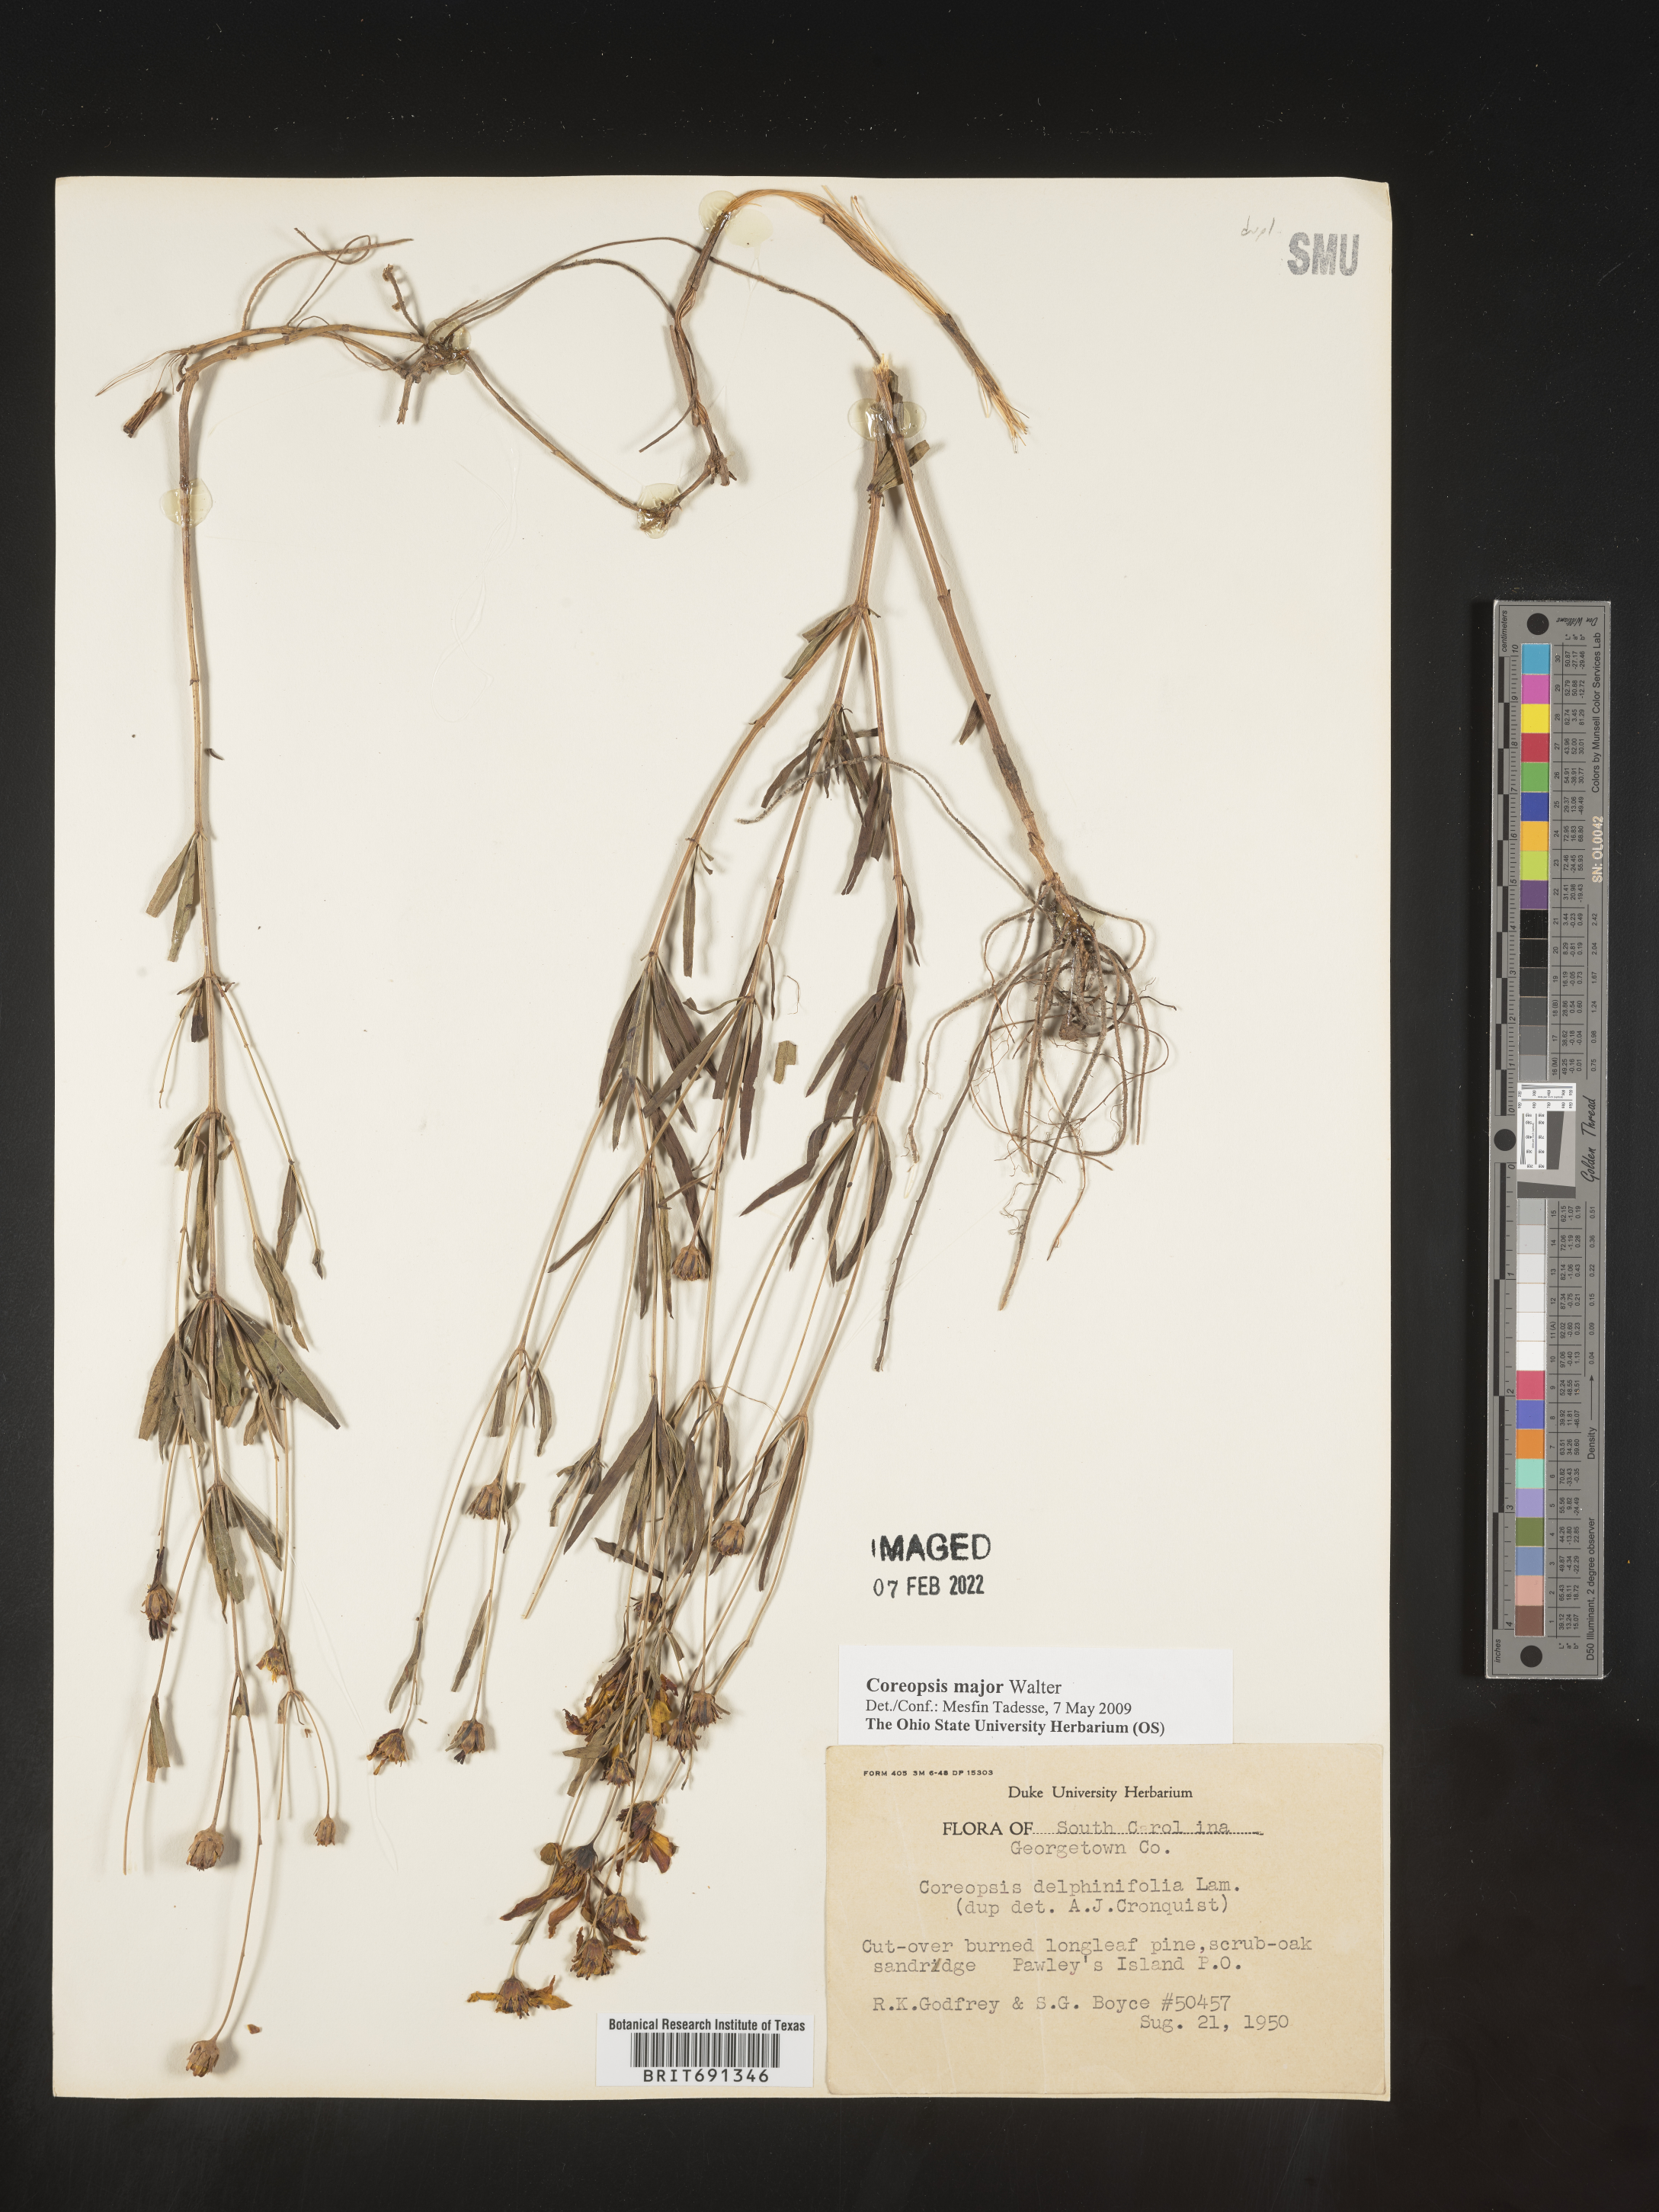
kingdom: Plantae
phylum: Tracheophyta
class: Magnoliopsida
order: Asterales
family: Asteraceae
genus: Coreopsis
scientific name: Coreopsis major
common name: Forest tickseed
